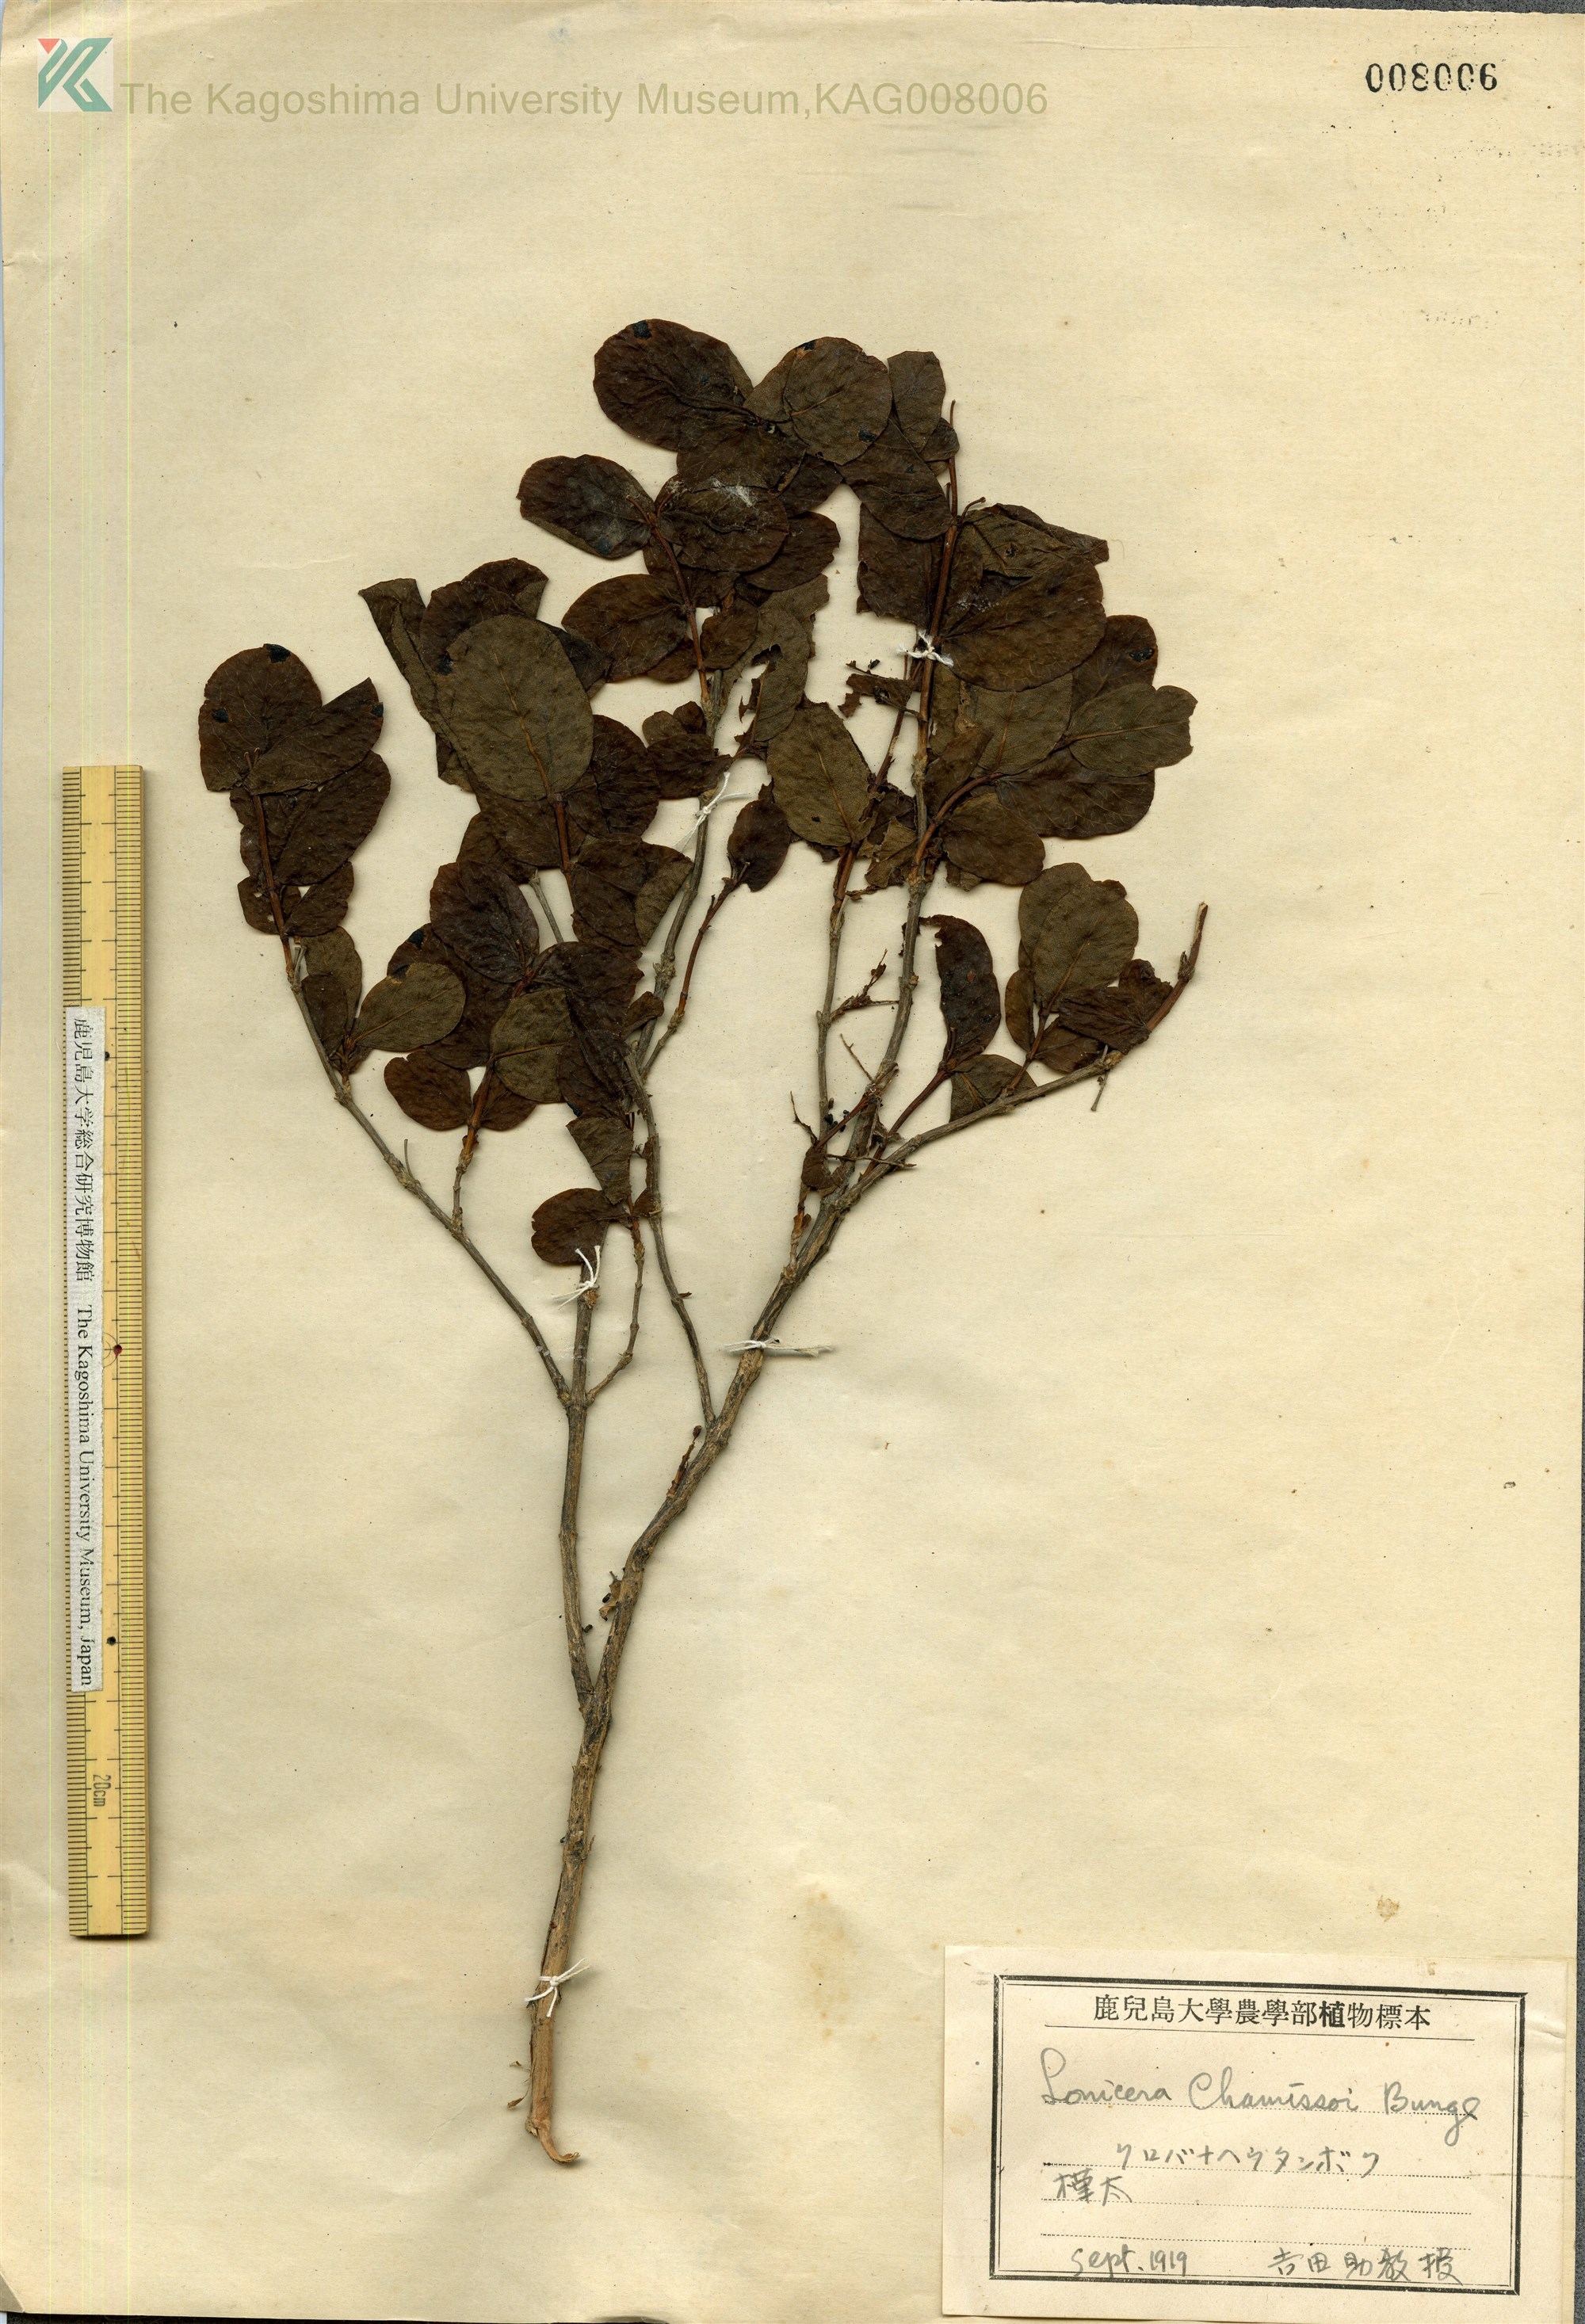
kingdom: Plantae
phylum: Tracheophyta
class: Magnoliopsida
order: Dipsacales
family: Caprifoliaceae
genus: Lonicera
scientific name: Lonicera chamissoi
